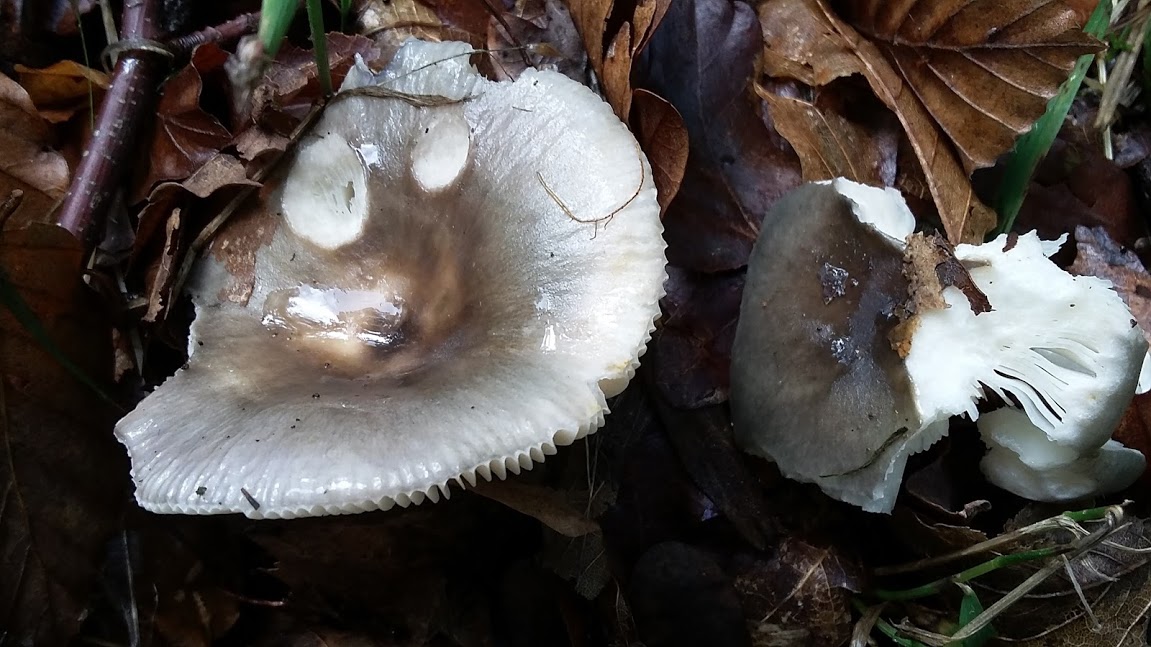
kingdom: Fungi
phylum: Basidiomycota
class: Agaricomycetes
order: Russulales
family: Russulaceae
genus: Russula
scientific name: Russula
